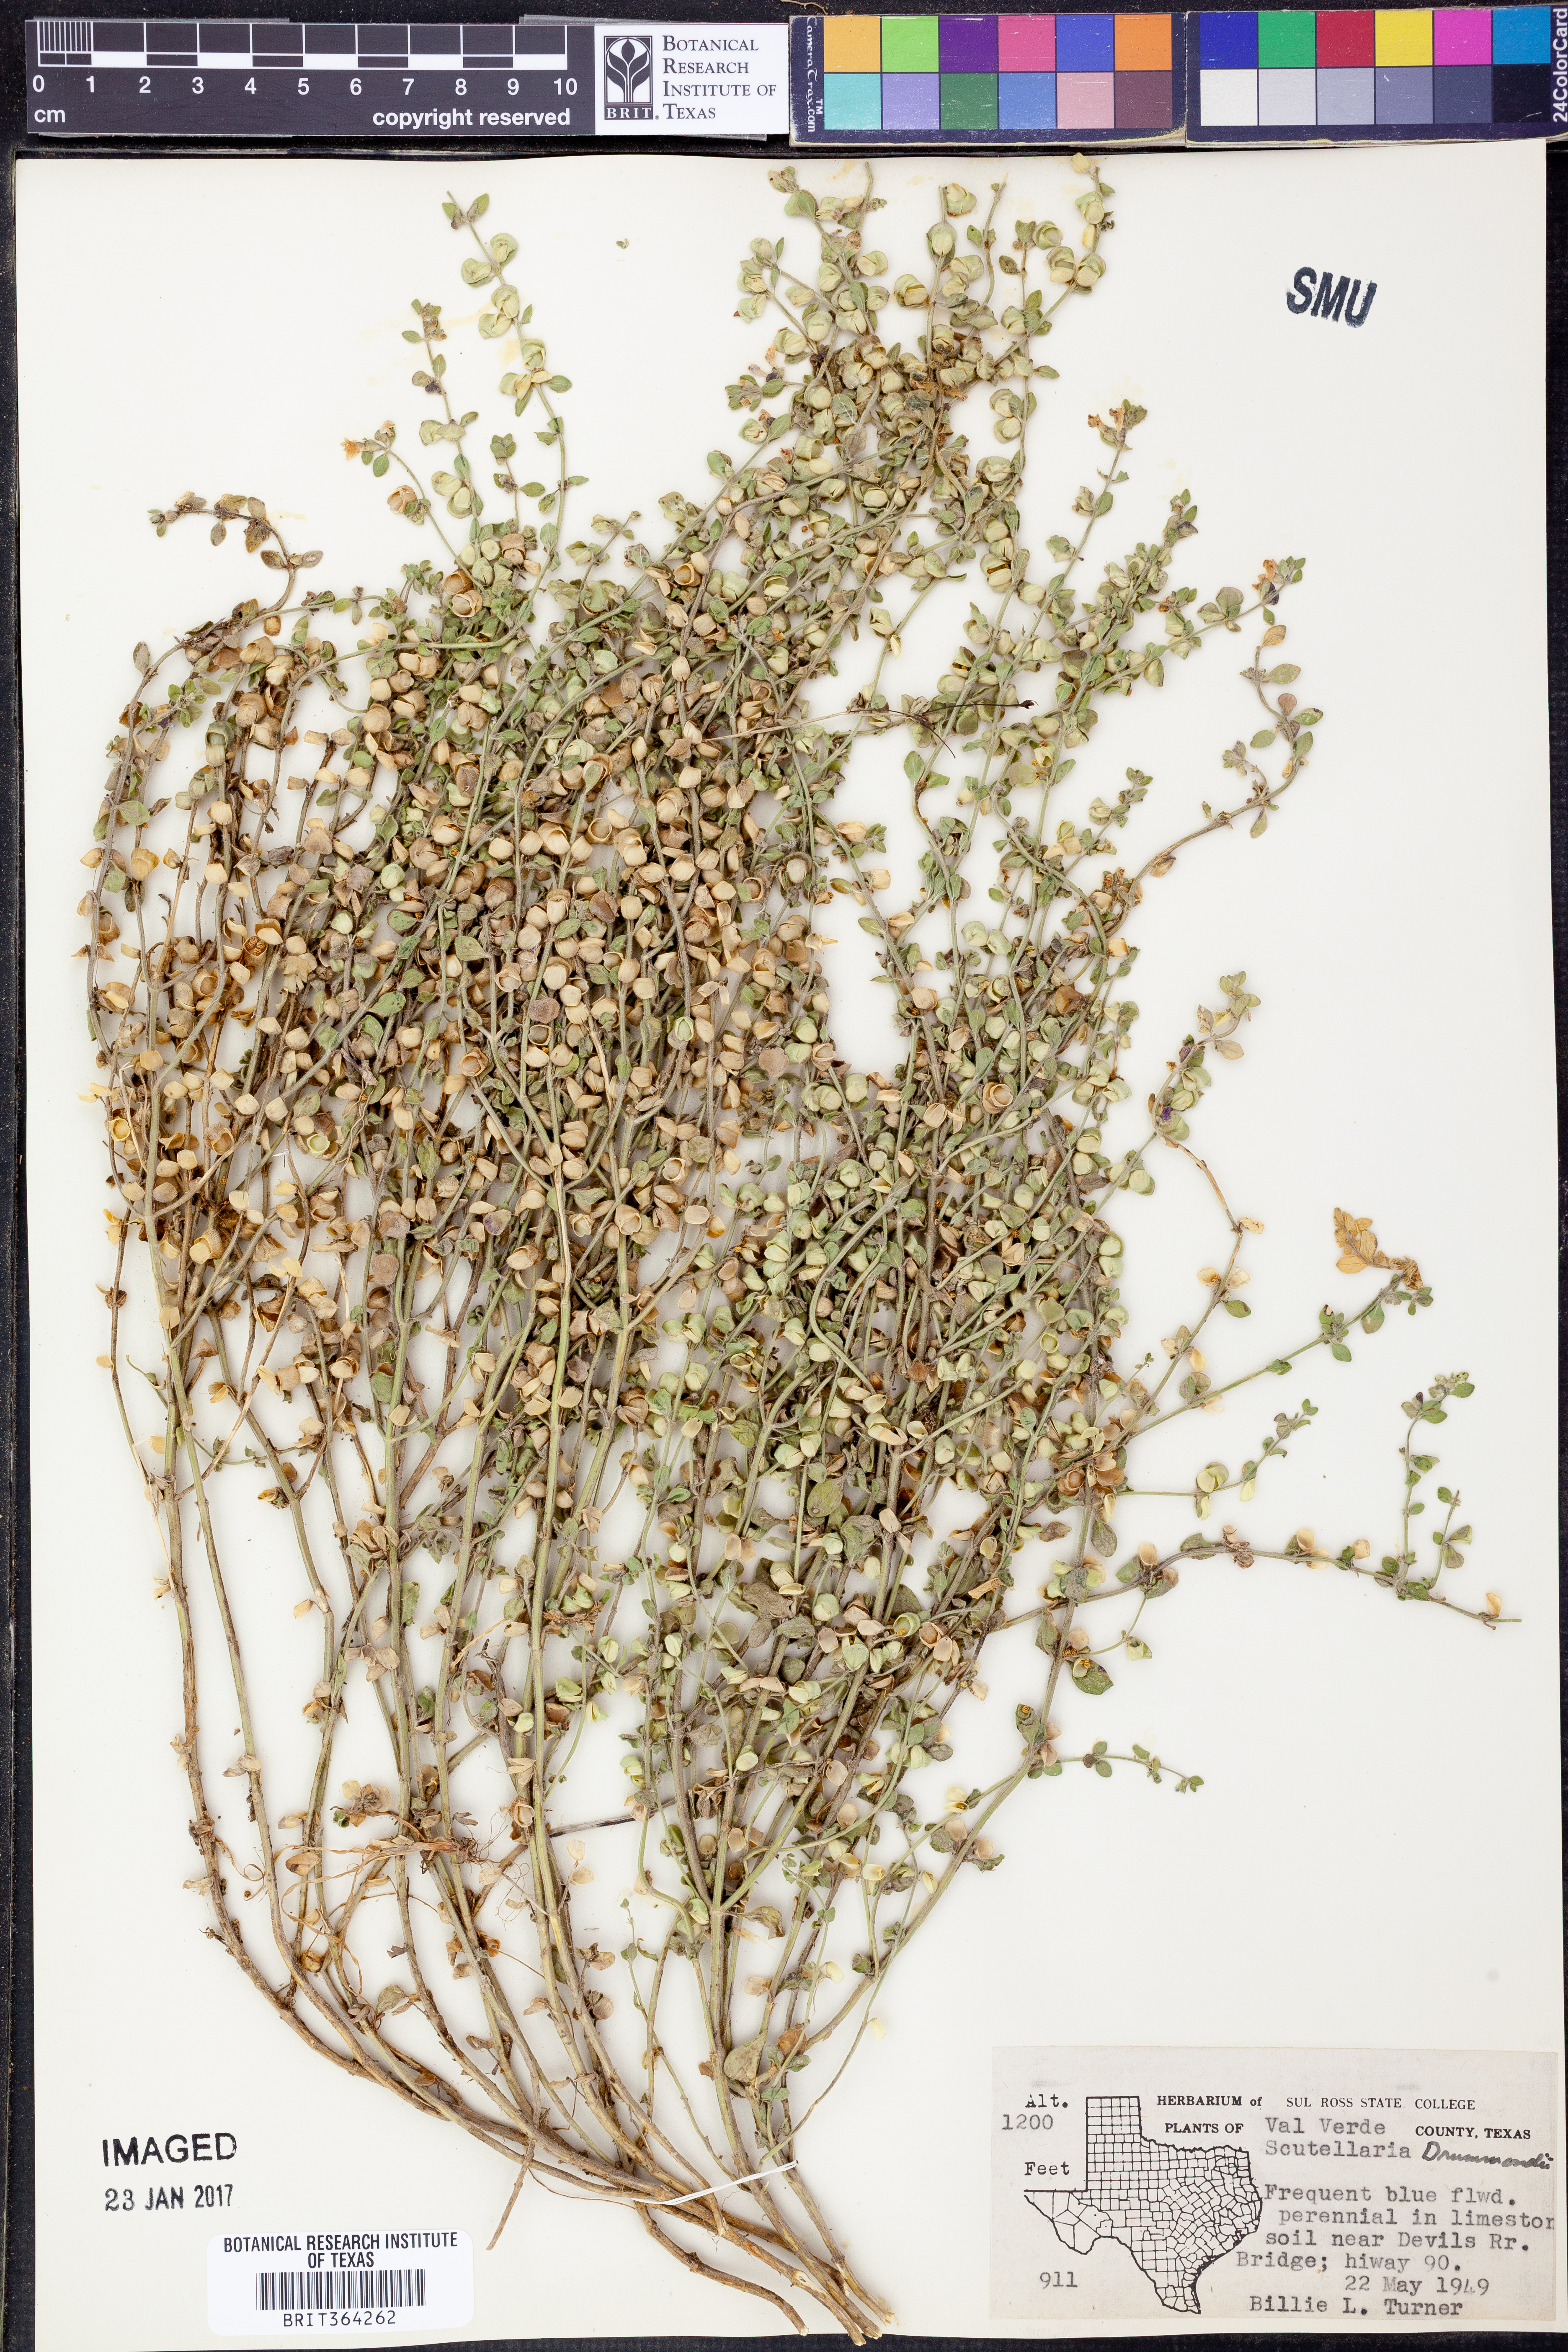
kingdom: Plantae
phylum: Tracheophyta
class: Magnoliopsida
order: Lamiales
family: Lamiaceae
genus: Scutellaria
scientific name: Scutellaria drummondii
